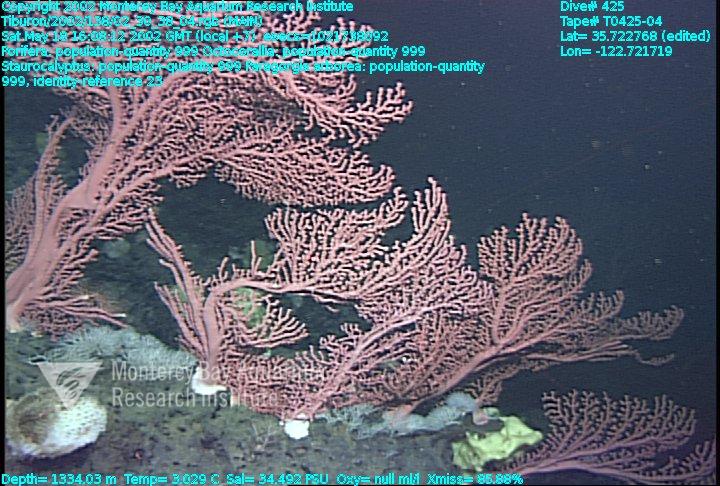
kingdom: Animalia
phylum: Porifera
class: Hexactinellida
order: Lyssacinosida
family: Rossellidae
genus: Staurocalyptus
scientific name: Staurocalyptus
